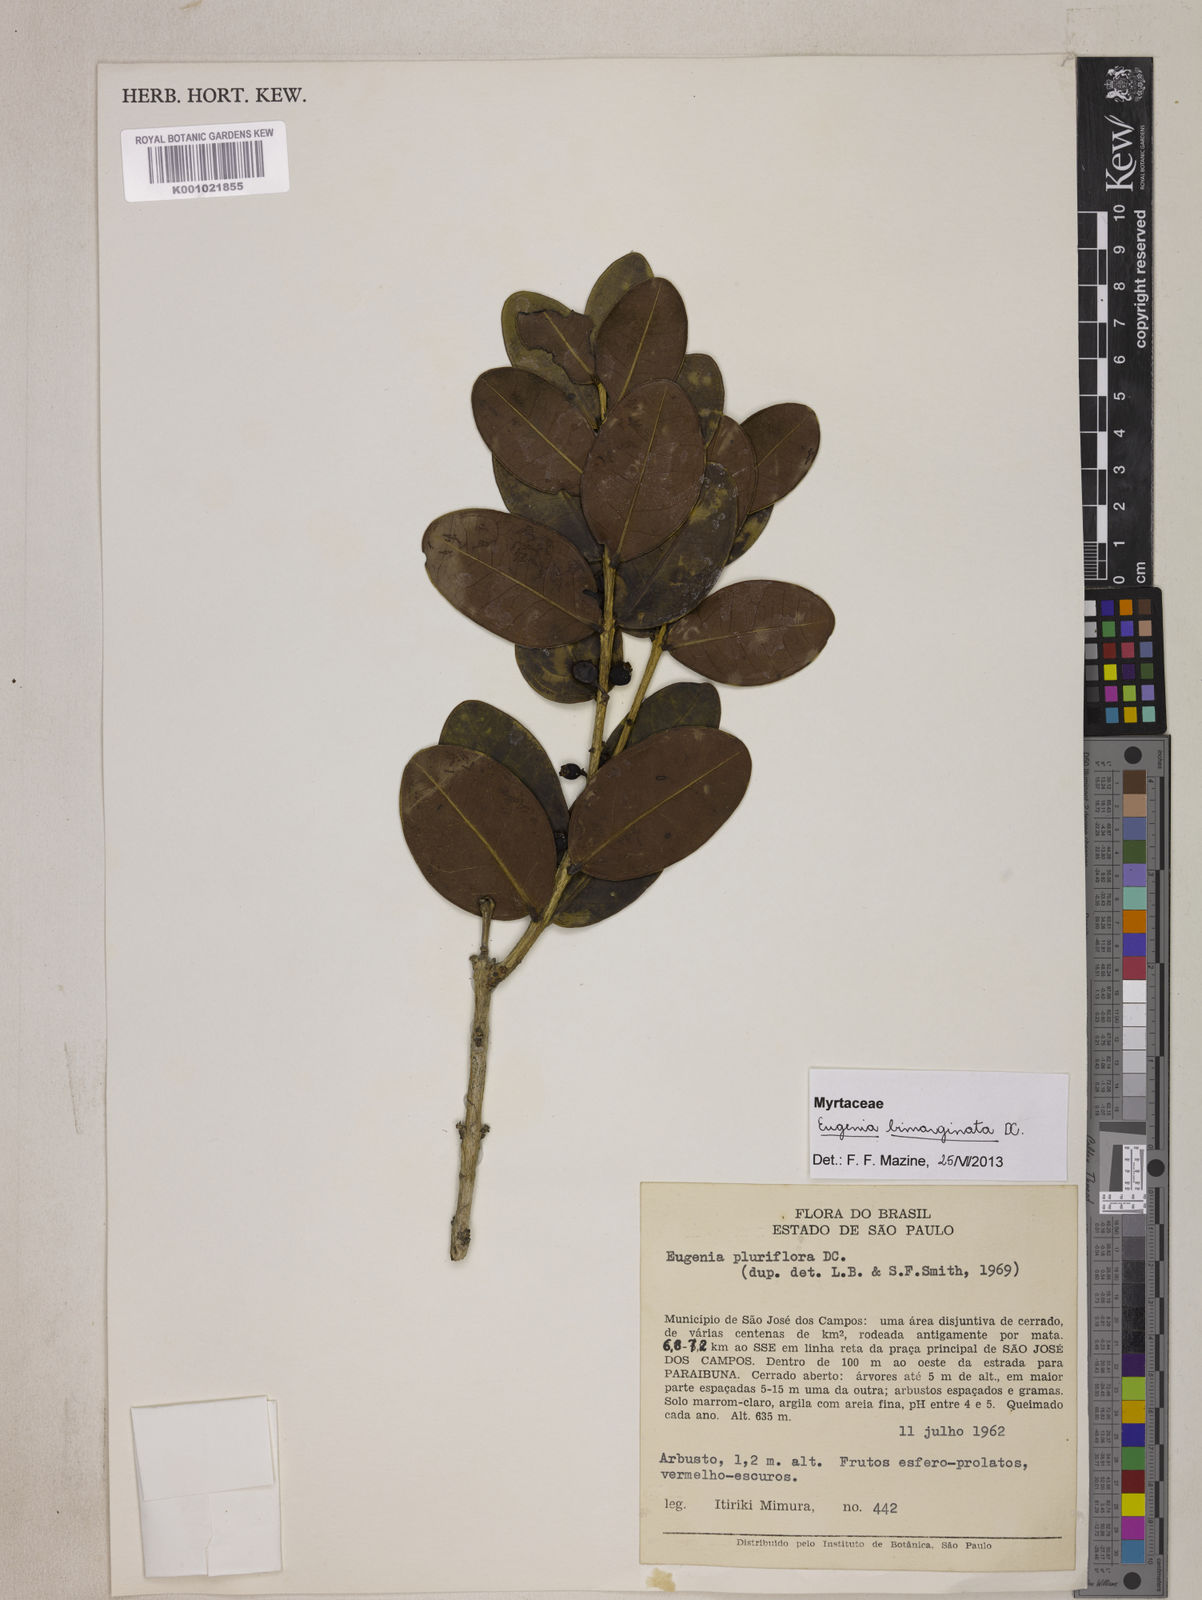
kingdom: Plantae
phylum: Tracheophyta
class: Magnoliopsida
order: Myrtales
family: Myrtaceae
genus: Eugenia
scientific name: Eugenia bimarginata
